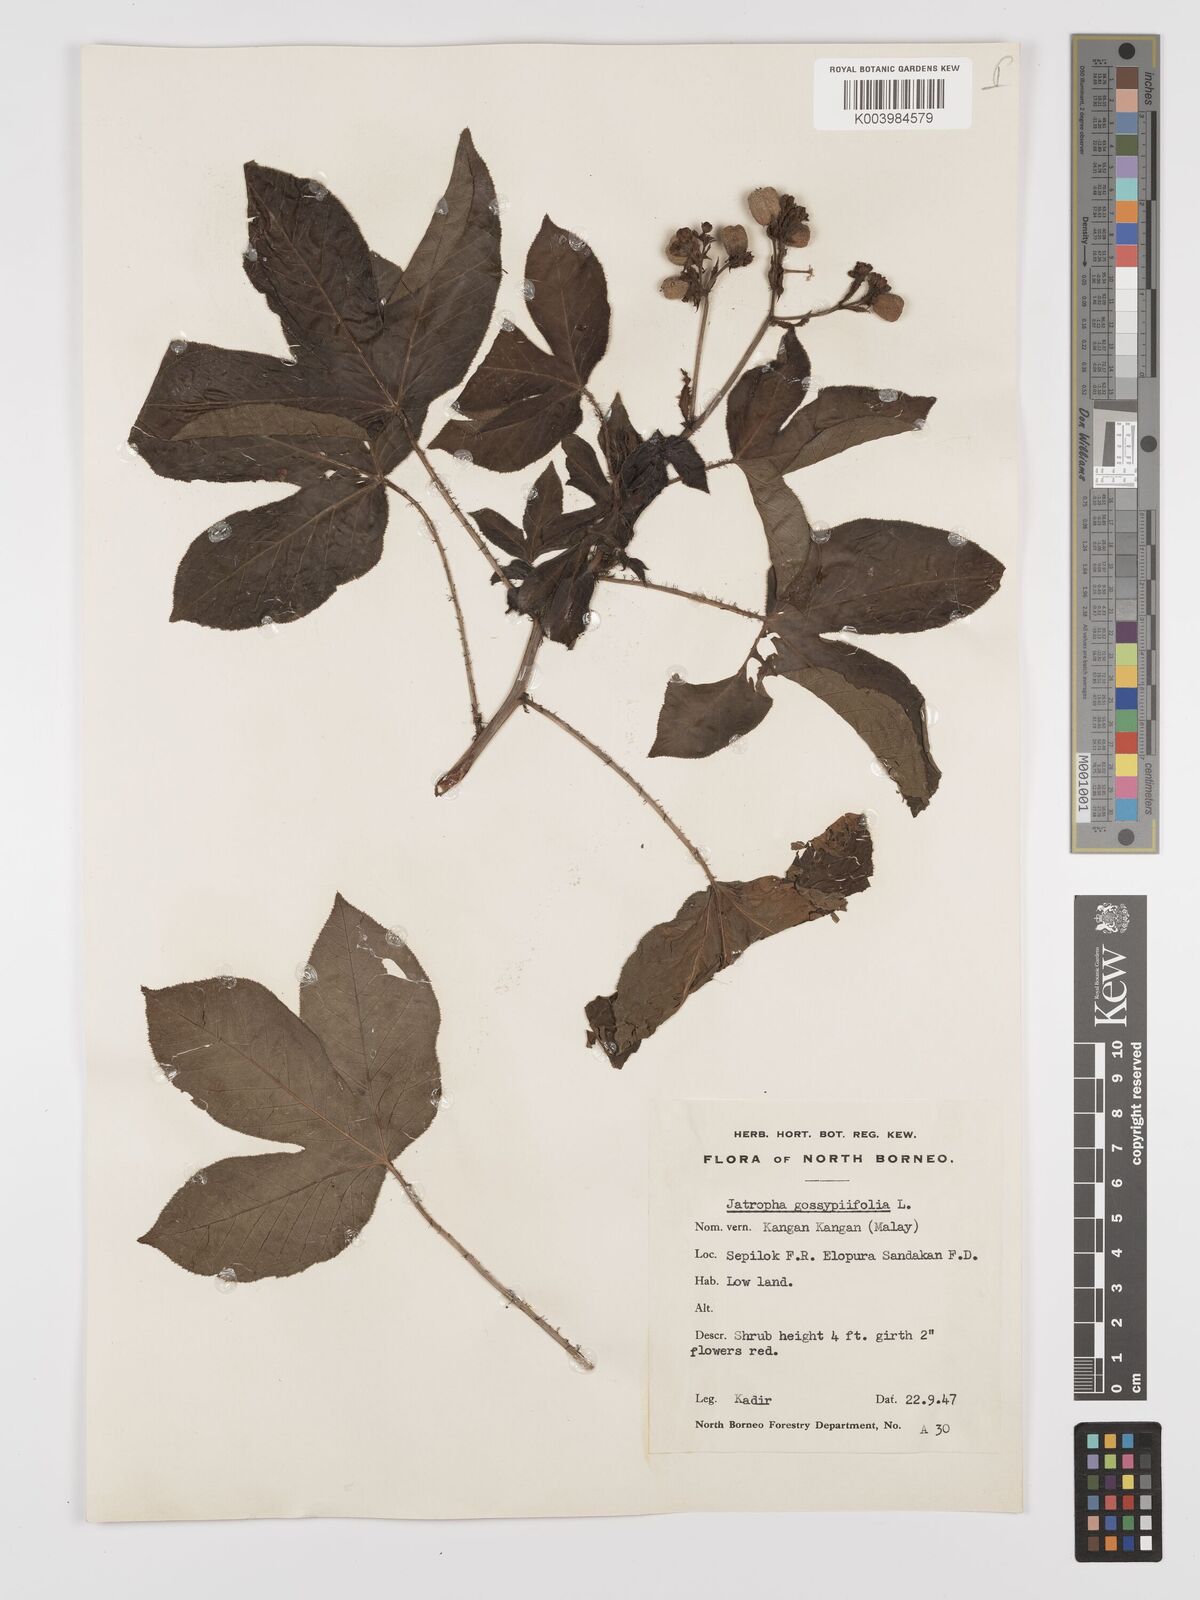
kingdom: Plantae
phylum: Tracheophyta
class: Magnoliopsida
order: Malpighiales
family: Euphorbiaceae
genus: Jatropha
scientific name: Jatropha gossypiifolia
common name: Bellyache bush
